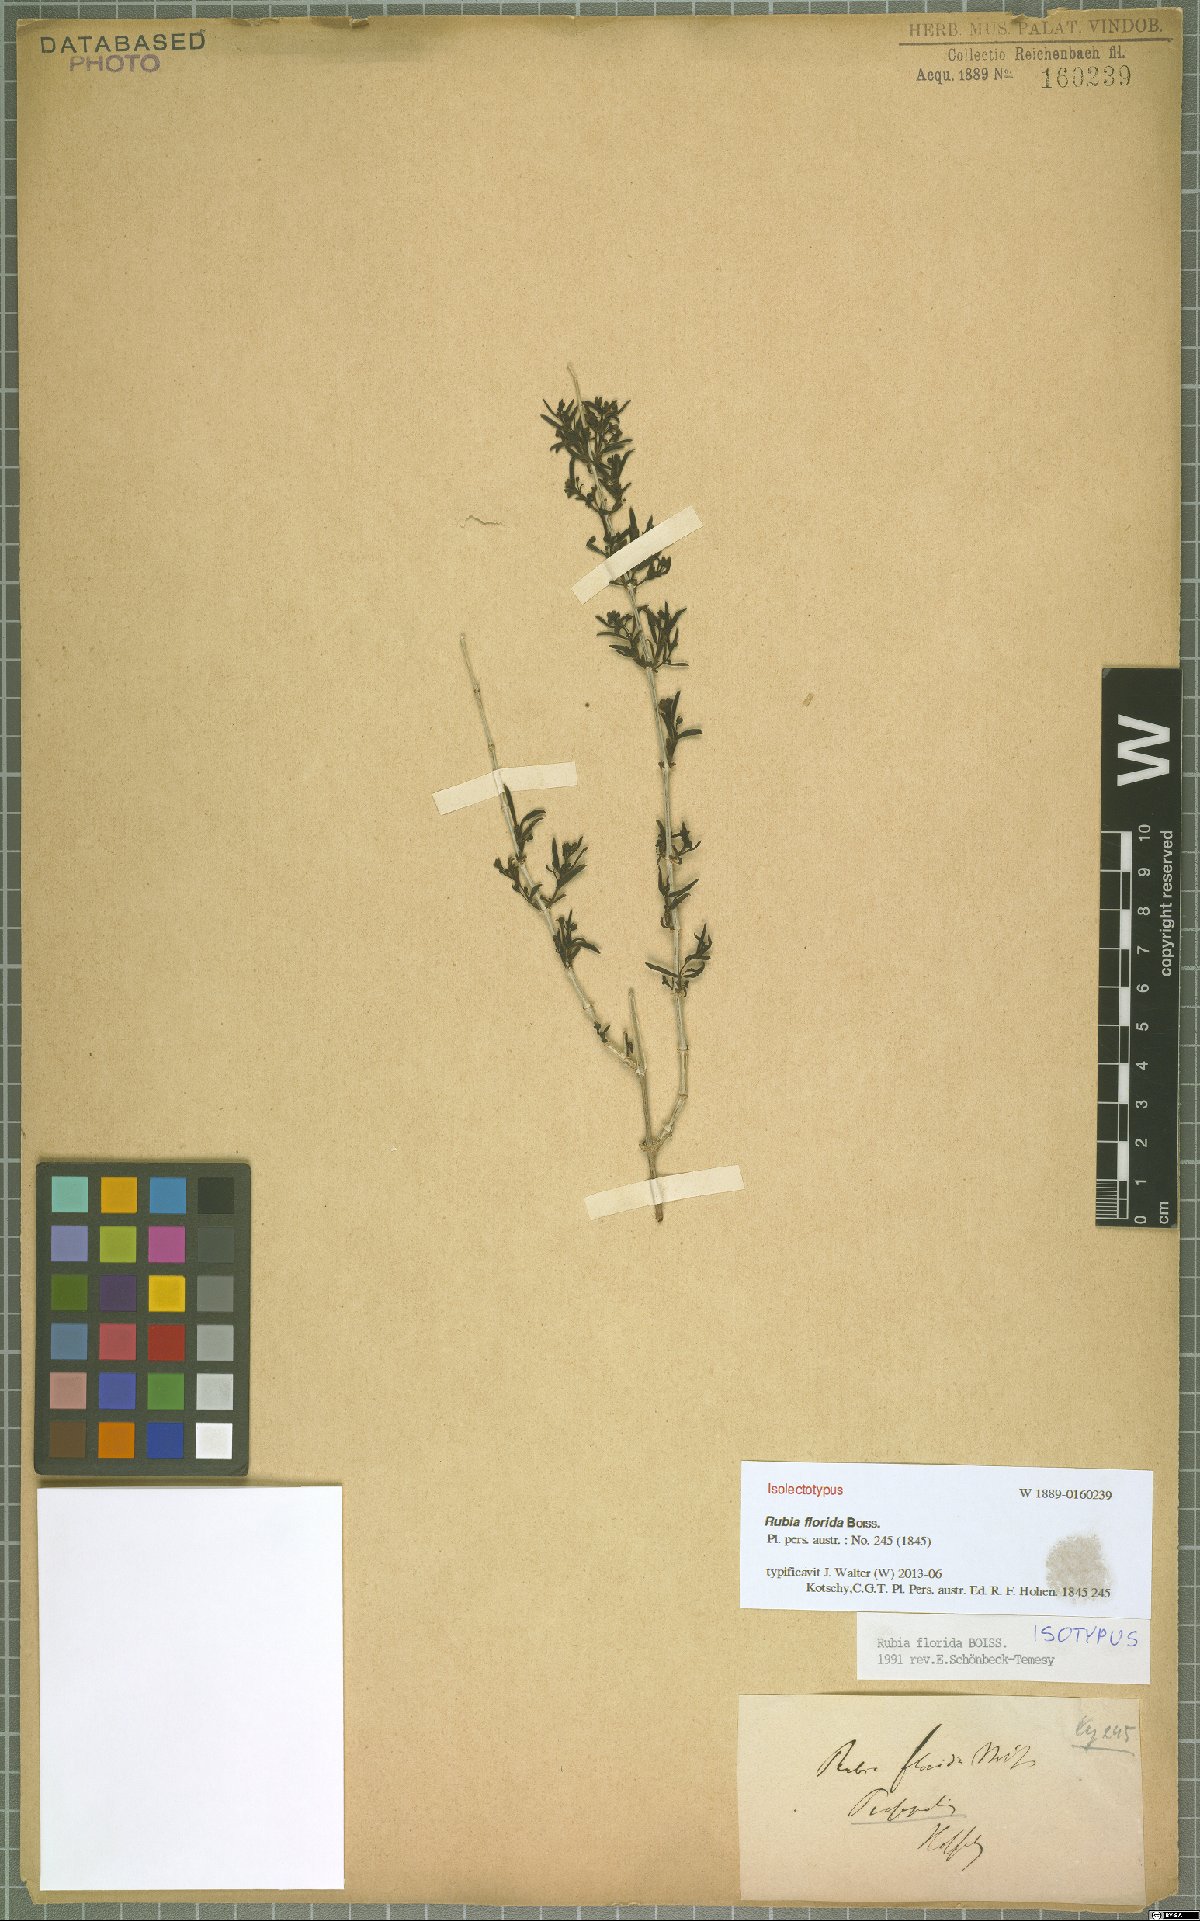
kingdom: Plantae
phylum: Tracheophyta
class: Magnoliopsida
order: Gentianales
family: Rubiaceae
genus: Rubia
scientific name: Rubia florida
